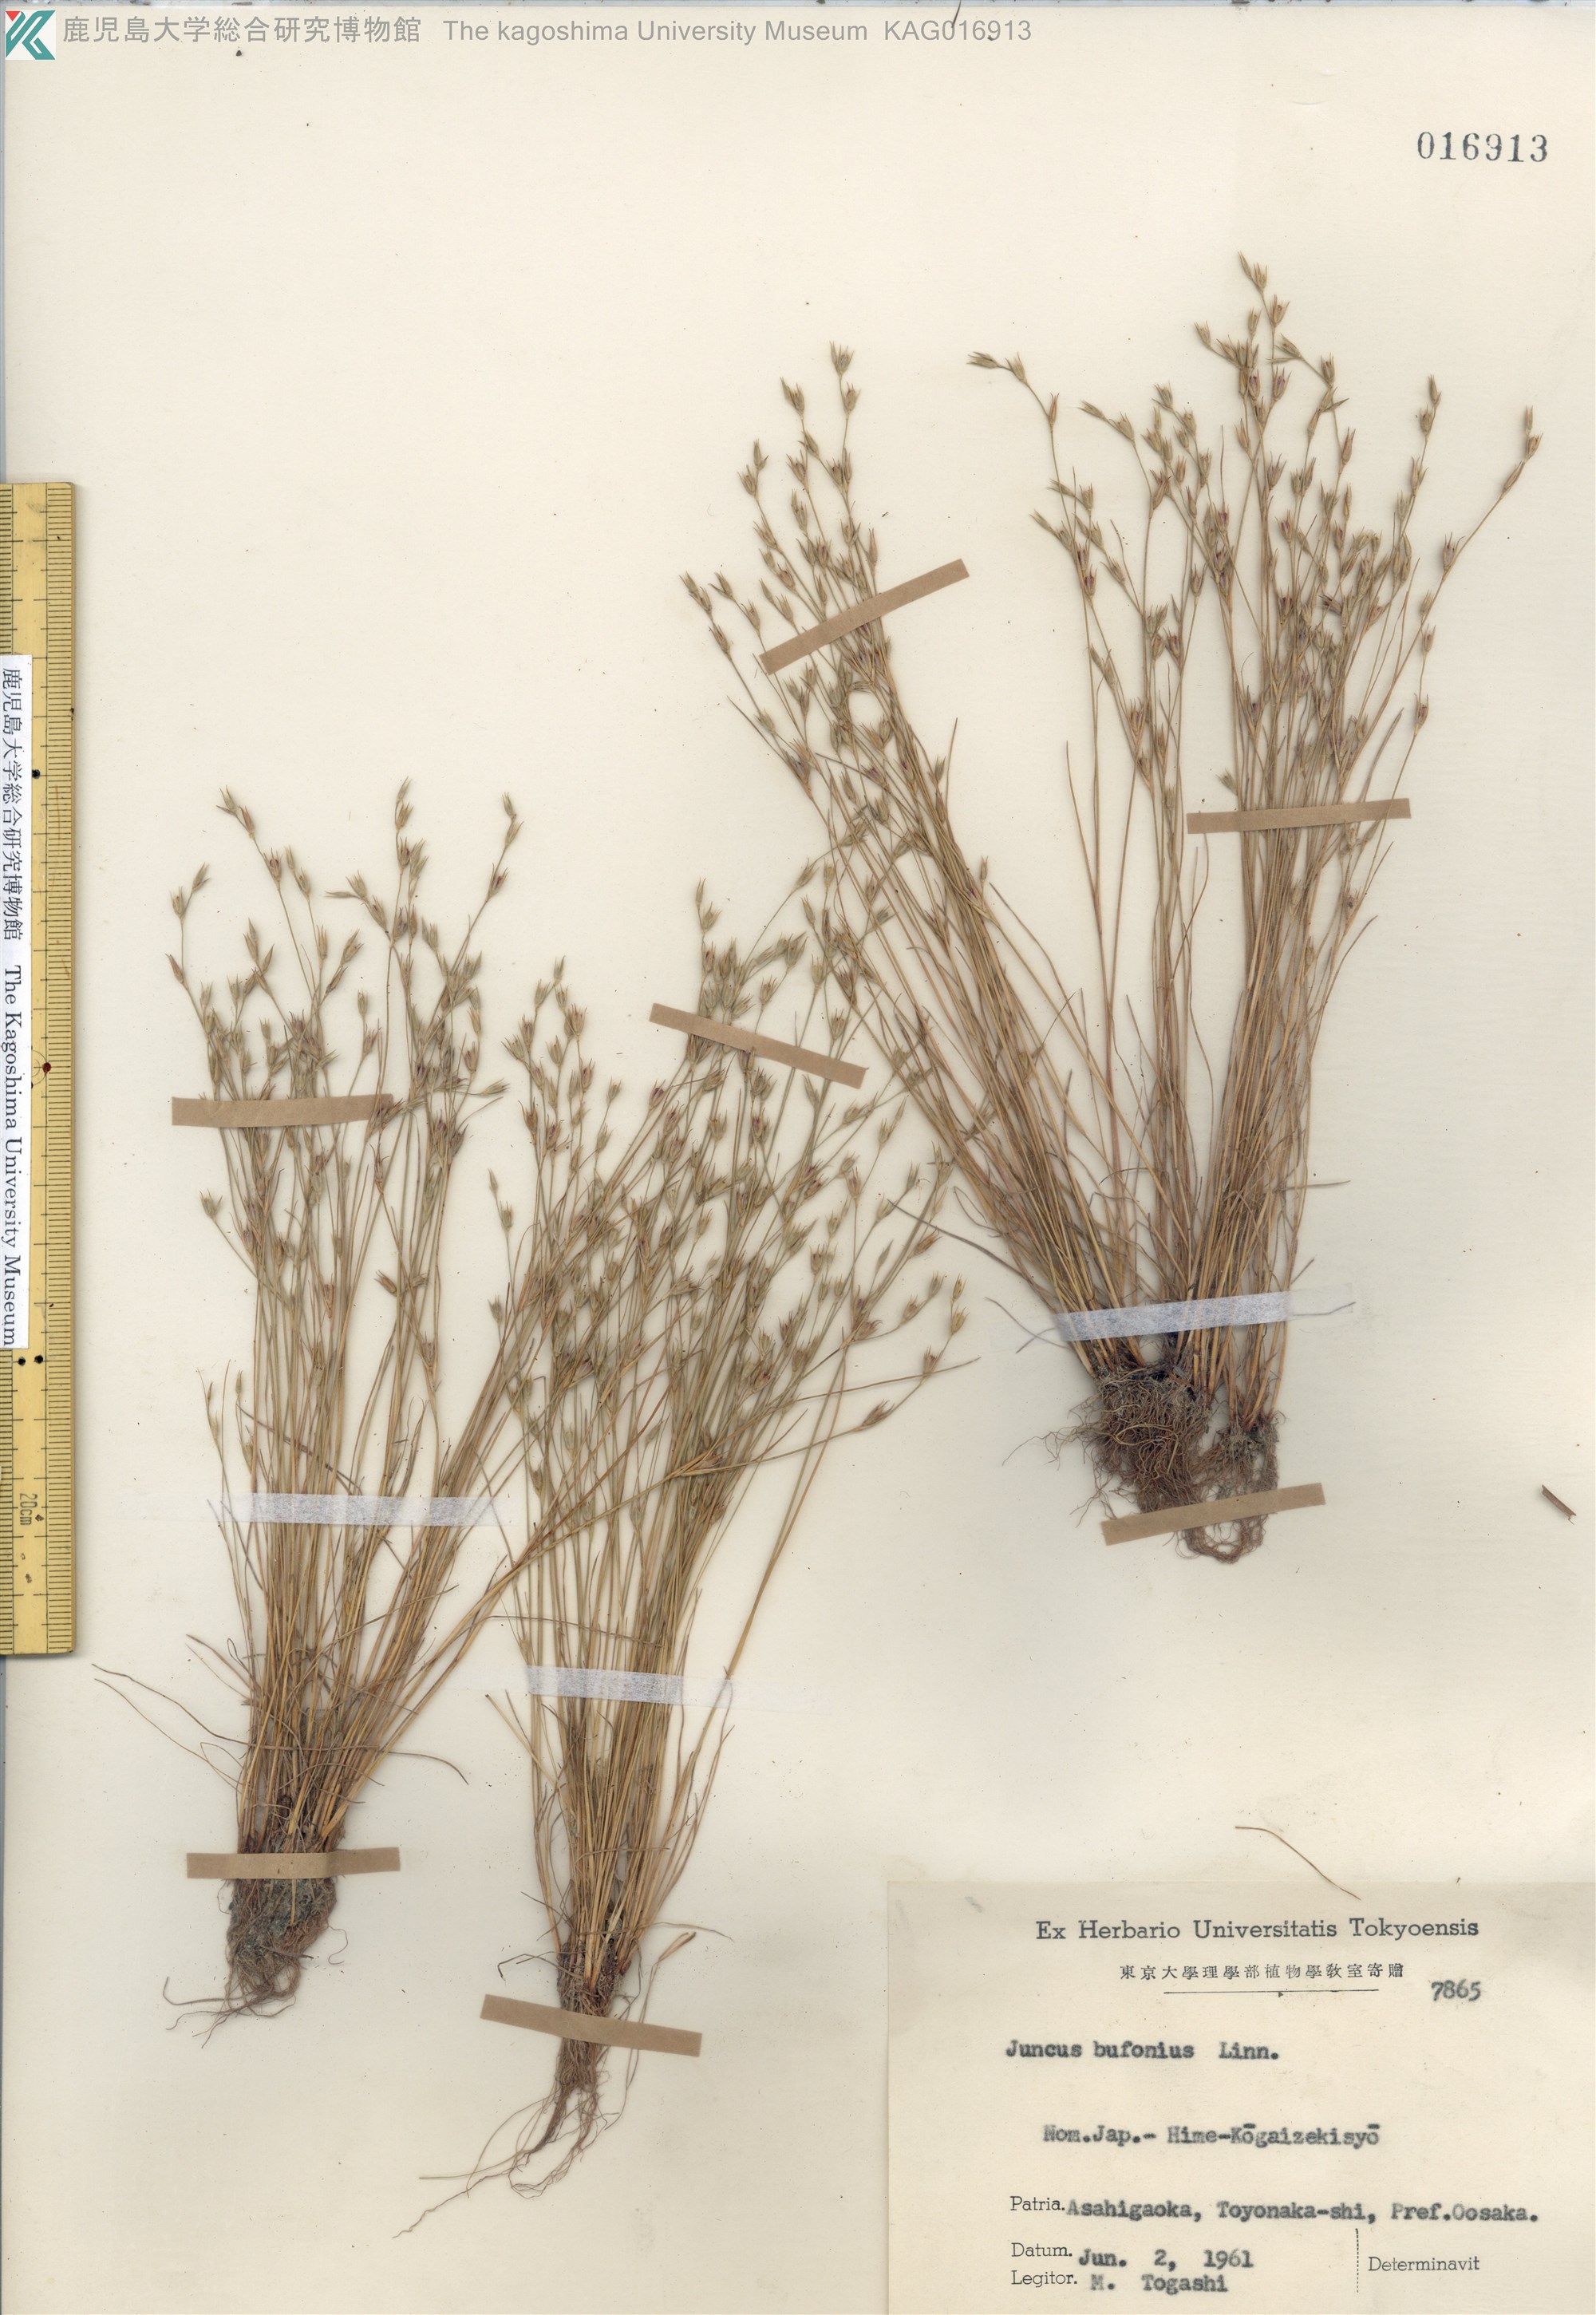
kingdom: Plantae
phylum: Tracheophyta
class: Liliopsida
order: Poales
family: Juncaceae
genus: Juncus
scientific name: Juncus bufonius
